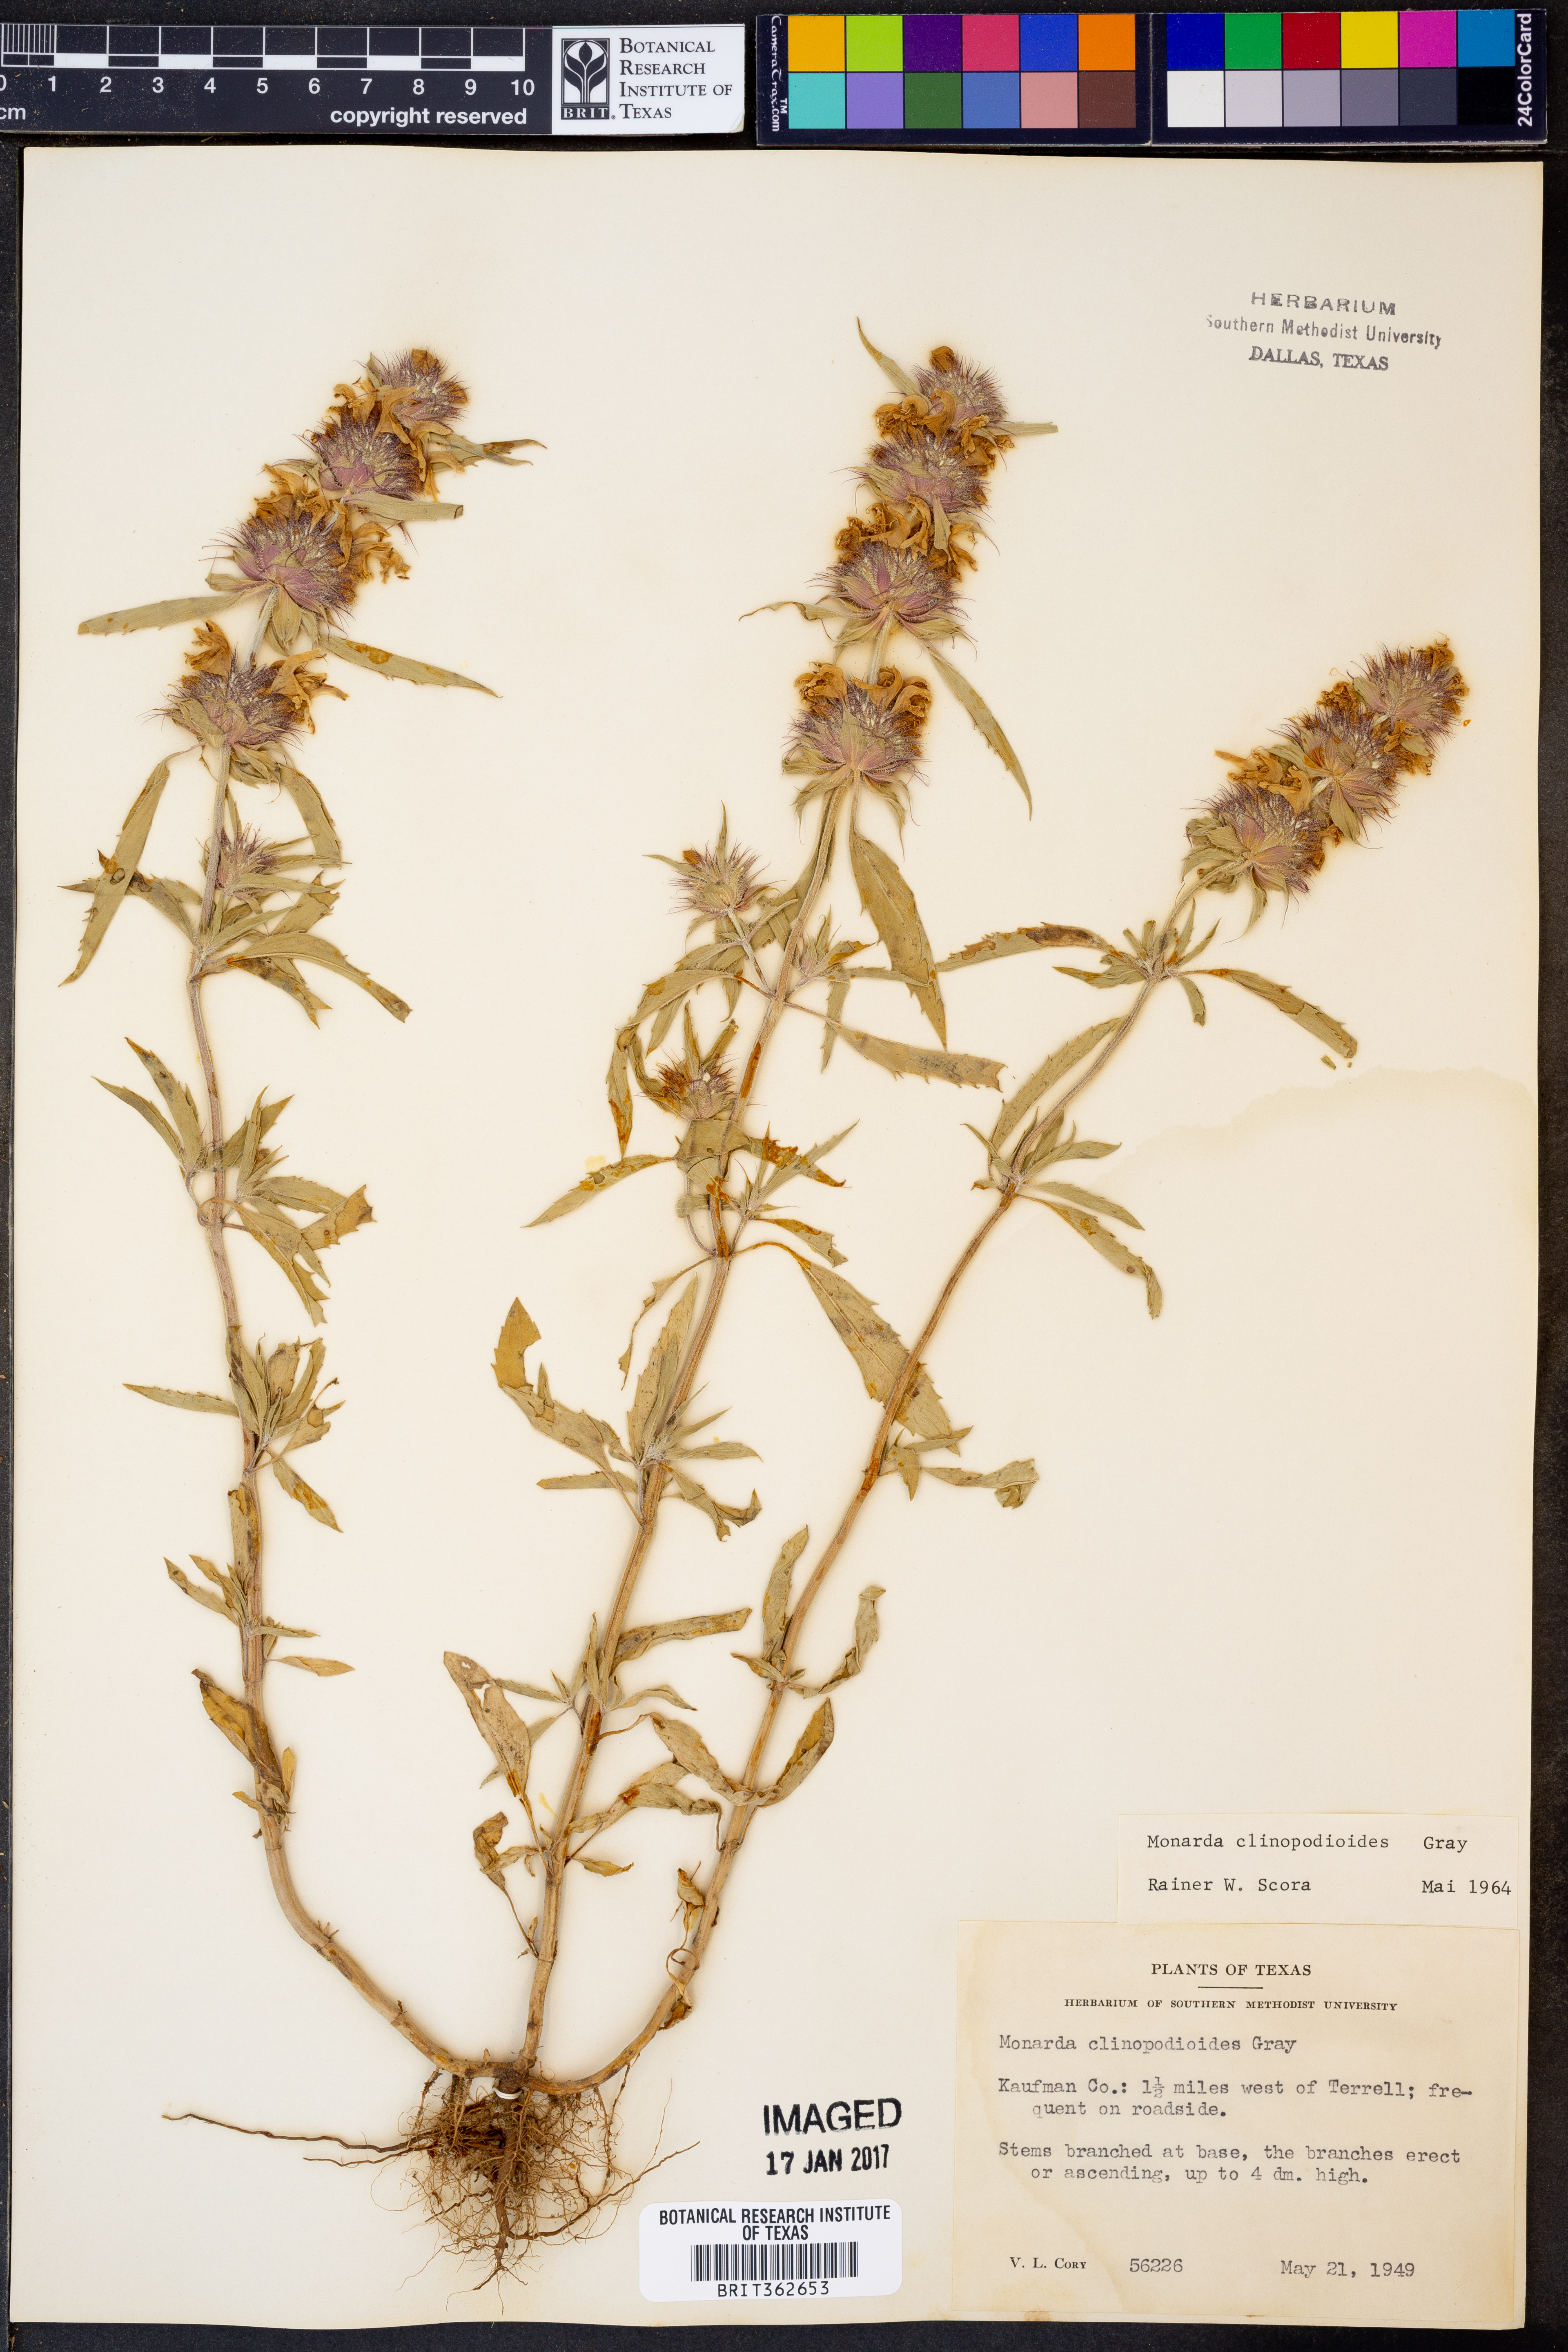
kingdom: Plantae
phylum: Tracheophyta
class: Magnoliopsida
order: Lamiales
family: Lamiaceae
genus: Monarda
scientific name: Monarda clinopodioides
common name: Basil beebalm
